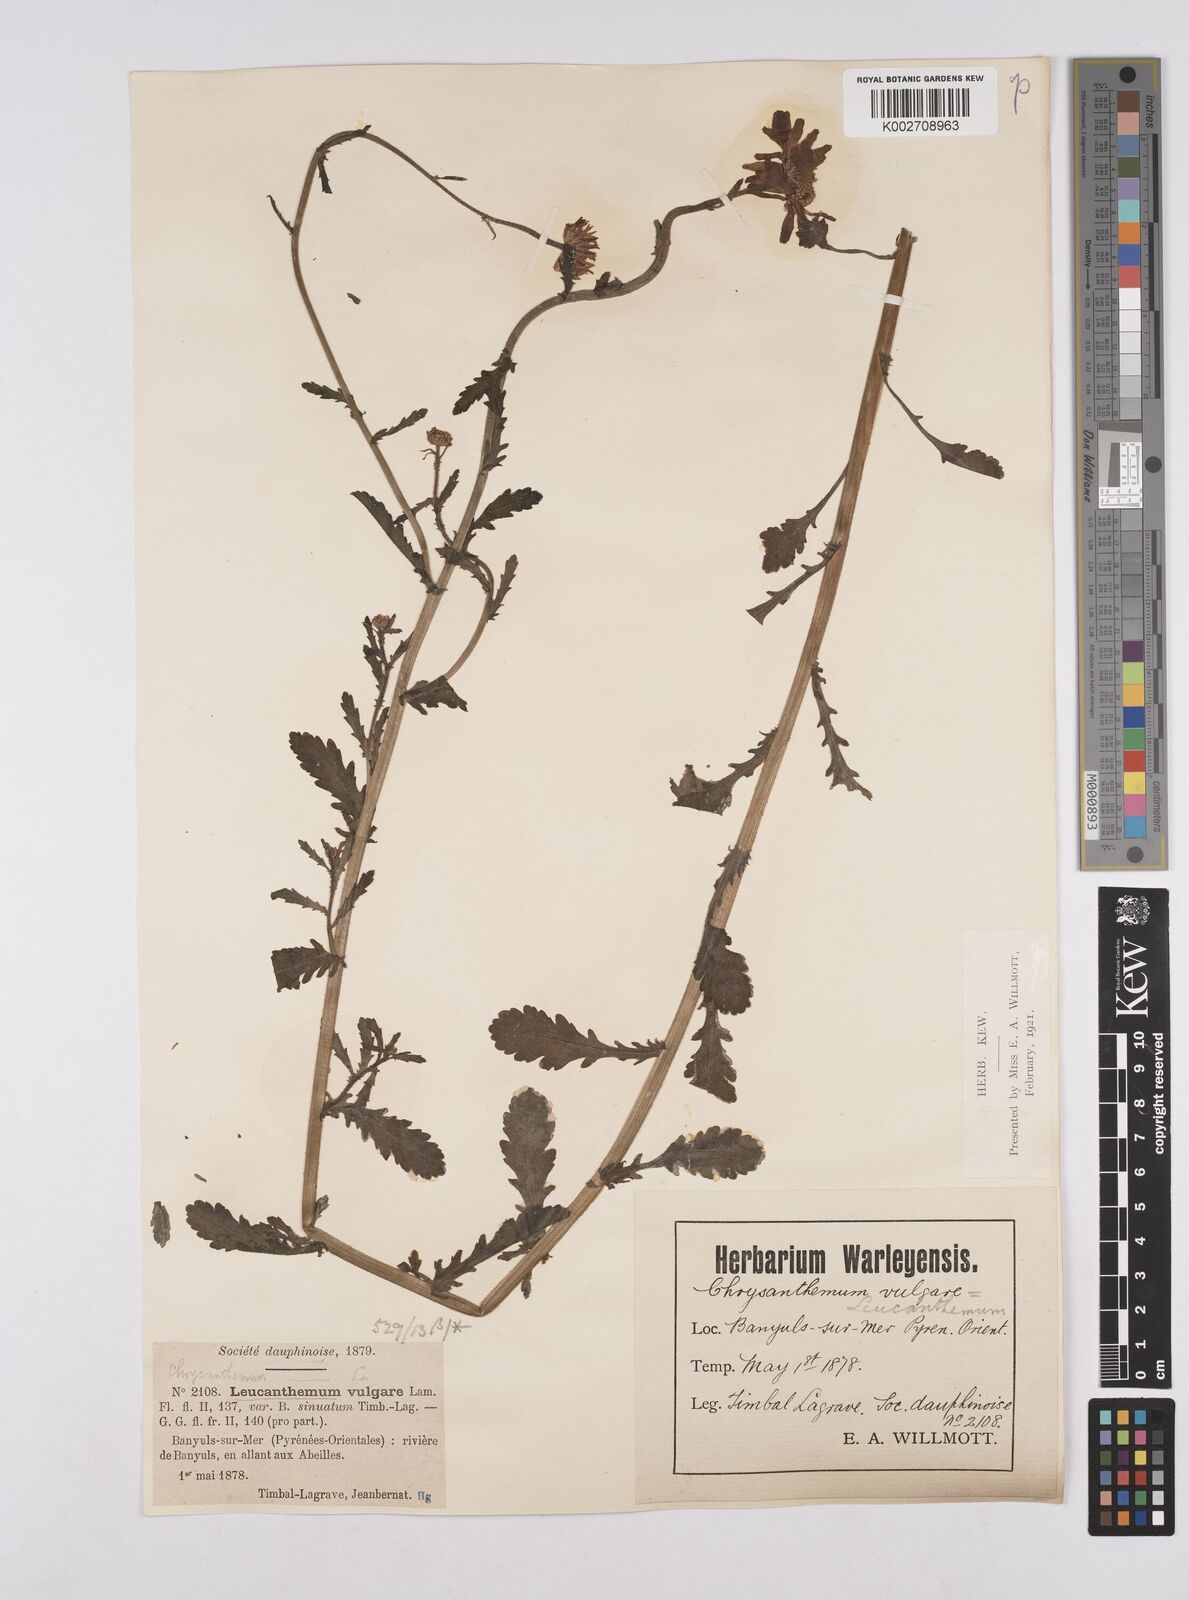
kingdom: Plantae
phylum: Tracheophyta
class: Magnoliopsida
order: Asterales
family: Asteraceae
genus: Leucanthemum
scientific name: Leucanthemum vulgare
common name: Oxeye daisy
